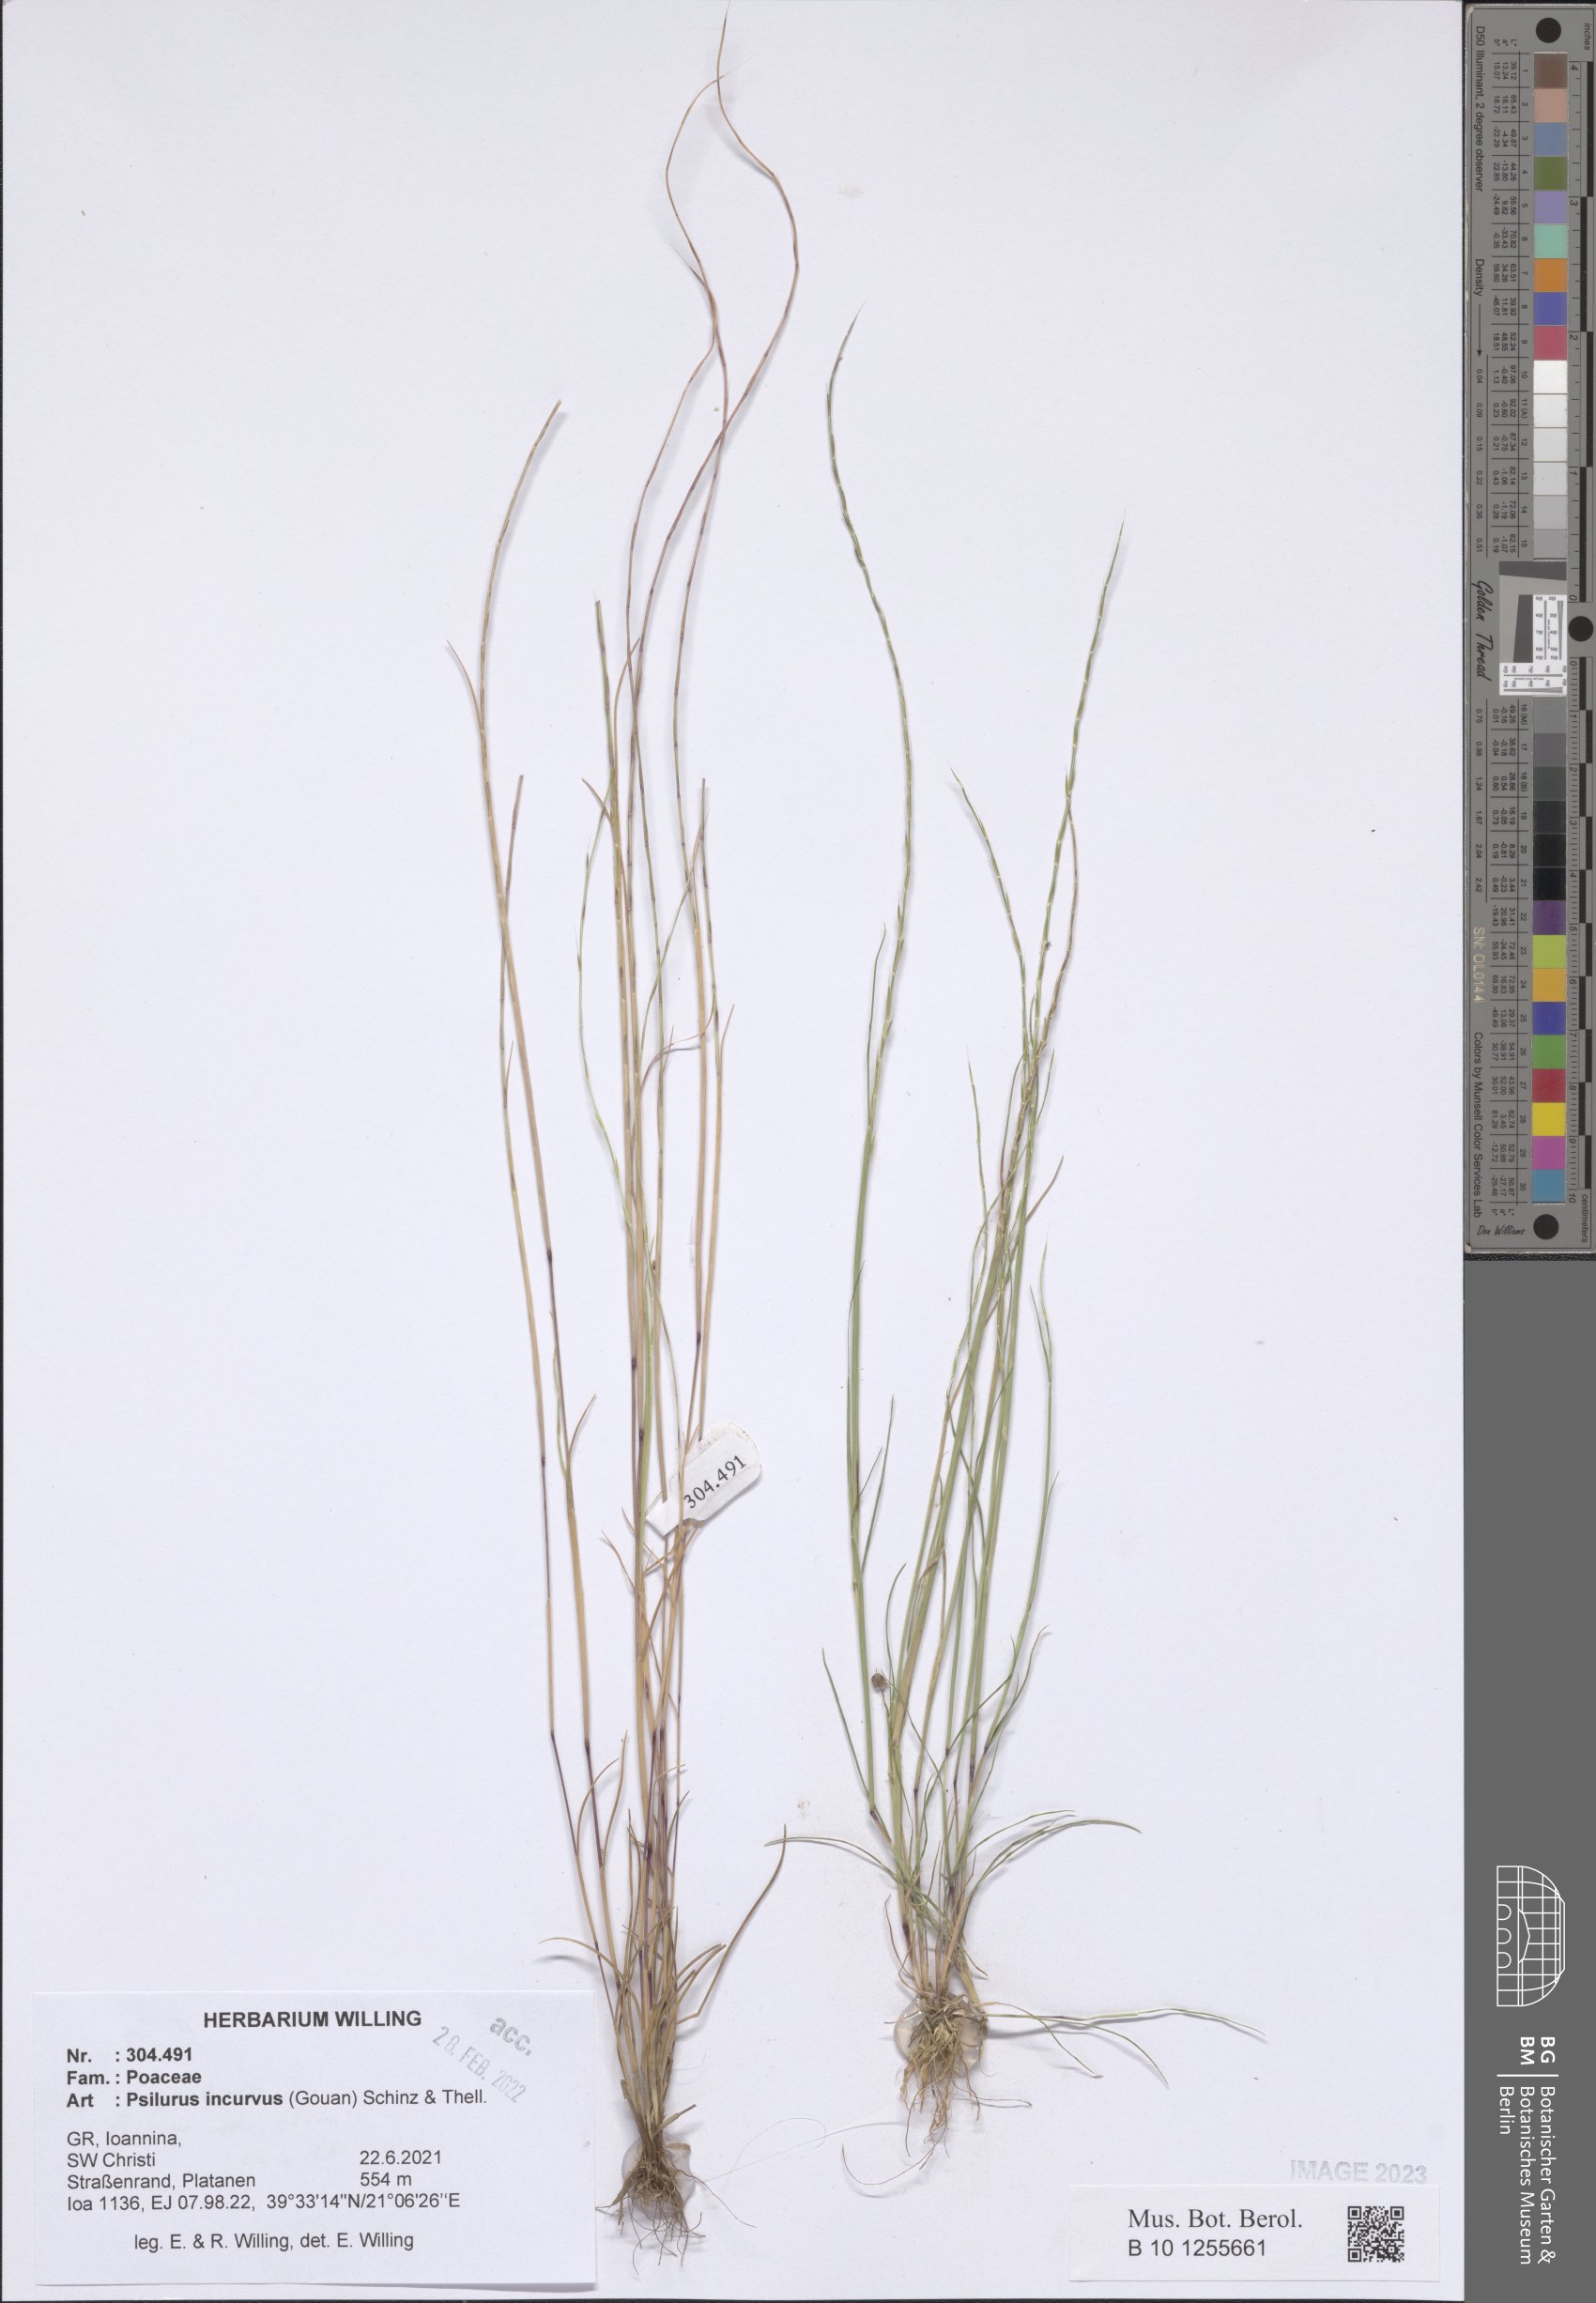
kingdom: Plantae
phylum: Tracheophyta
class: Liliopsida
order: Poales
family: Poaceae
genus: Festuca
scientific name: Festuca incurva
